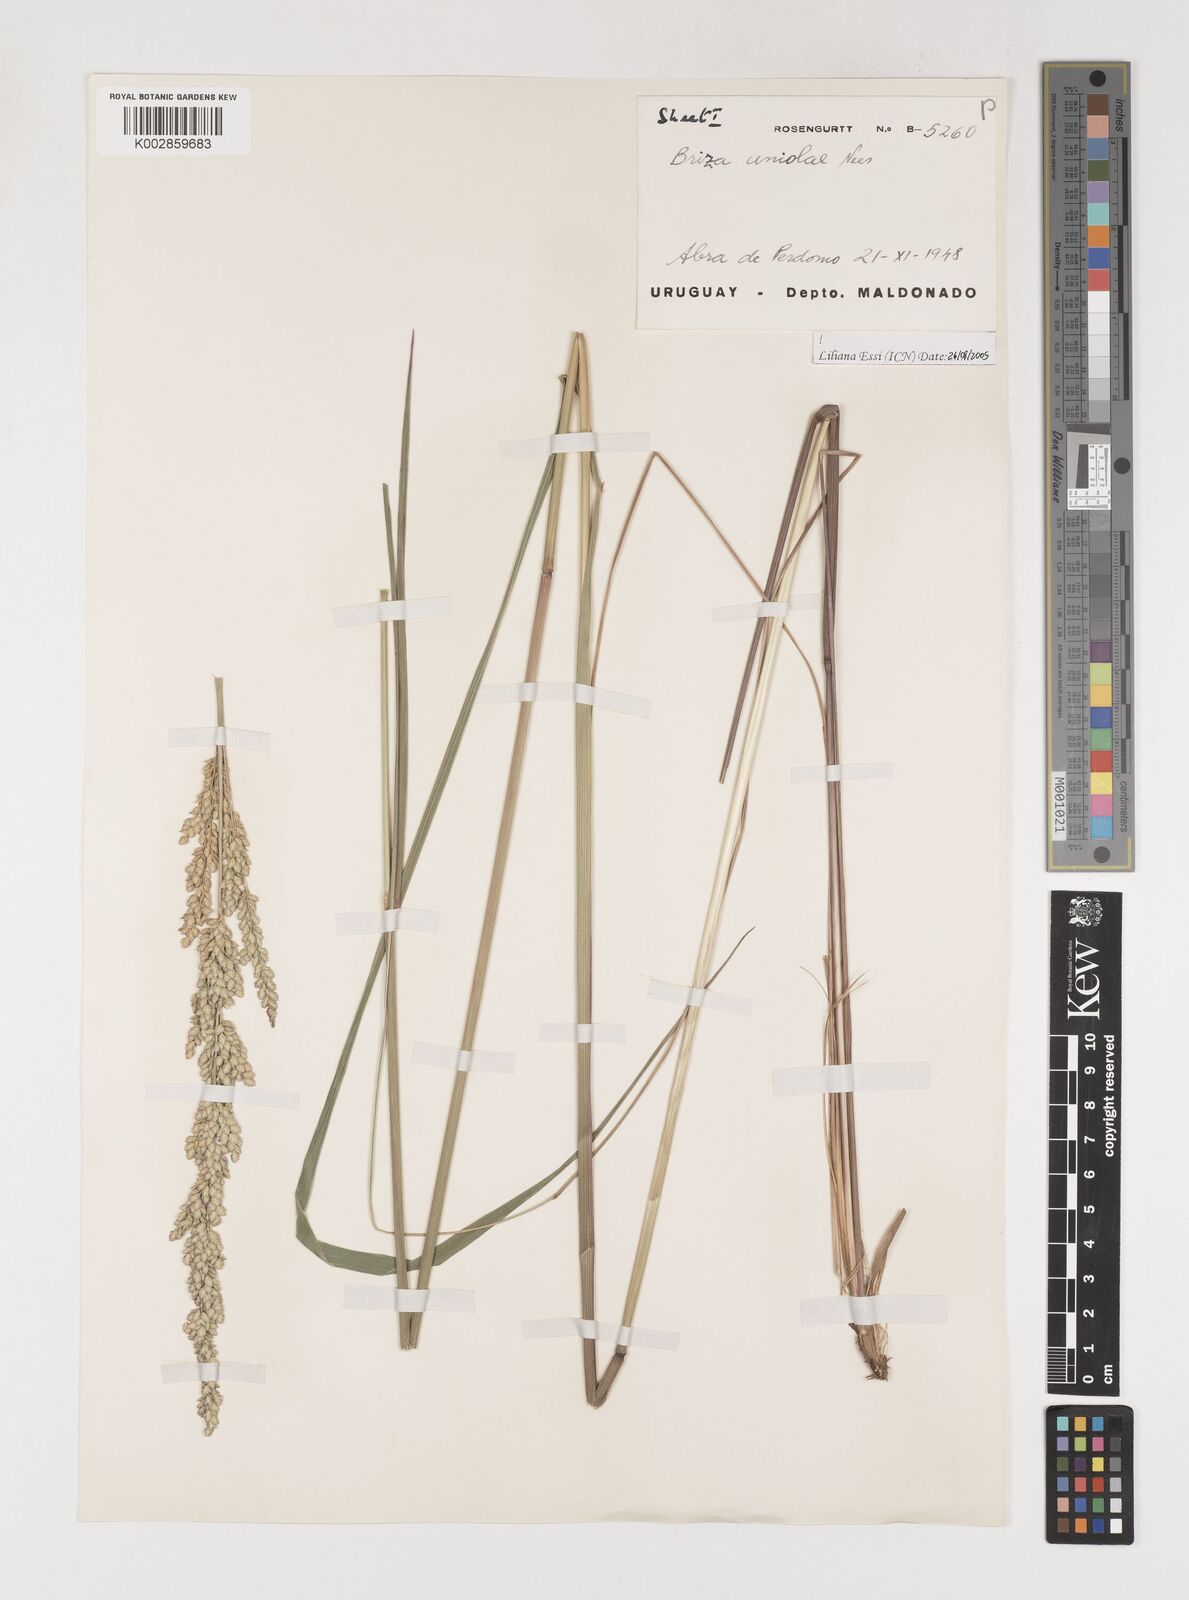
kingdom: Plantae
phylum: Tracheophyta
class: Liliopsida
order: Poales
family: Poaceae
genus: Poidium
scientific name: Poidium uniolae
